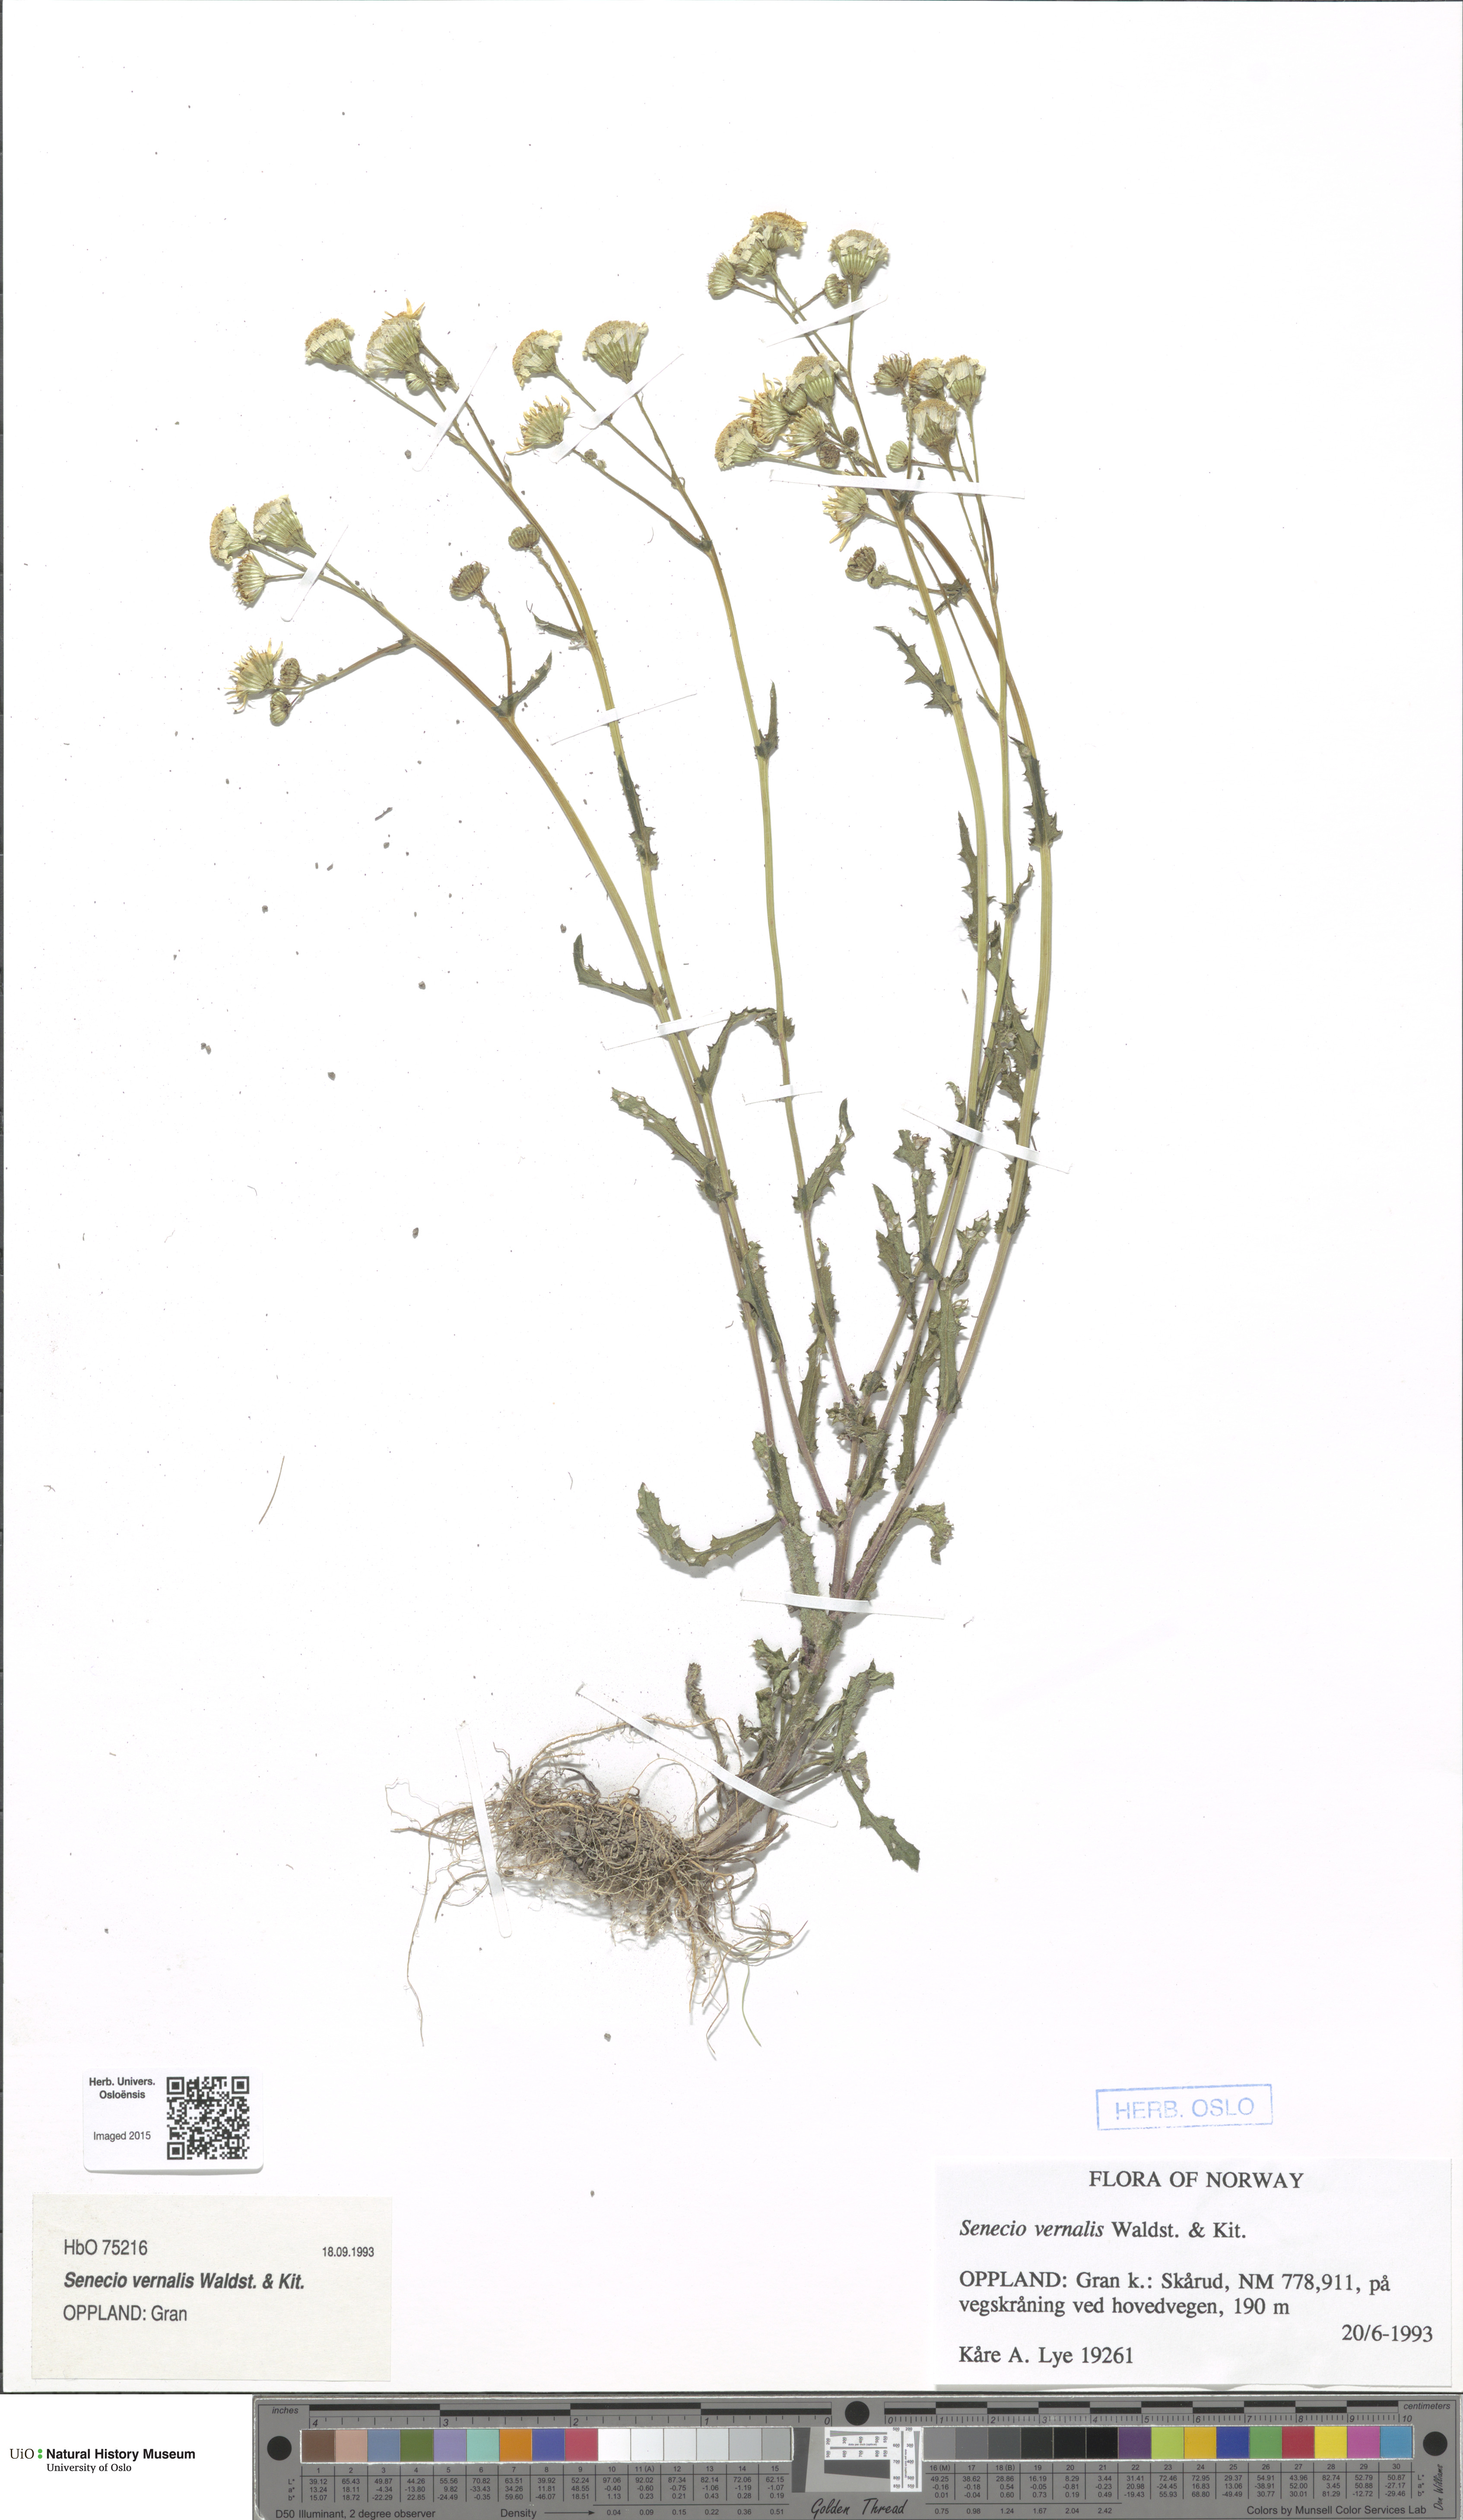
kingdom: Plantae
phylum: Tracheophyta
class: Magnoliopsida
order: Asterales
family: Asteraceae
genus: Senecio
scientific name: Senecio vernalis
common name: Eastern groundsel
